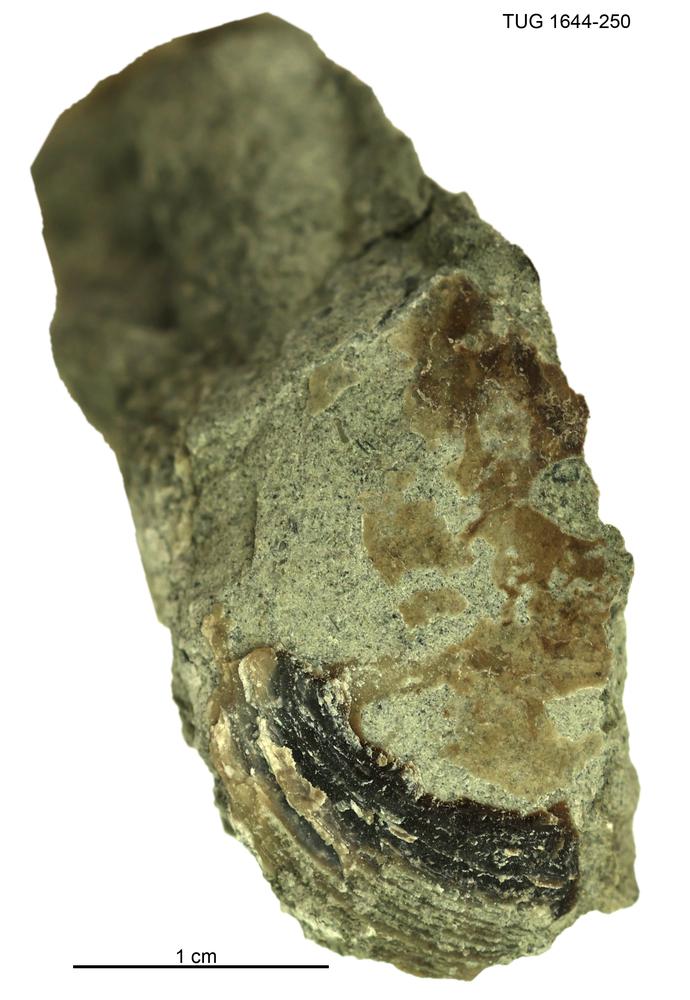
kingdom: Animalia
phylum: Mollusca
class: Monoplacophora
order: Tryblidiida
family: Tryblidiidae
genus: Pilina
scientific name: Pilina
